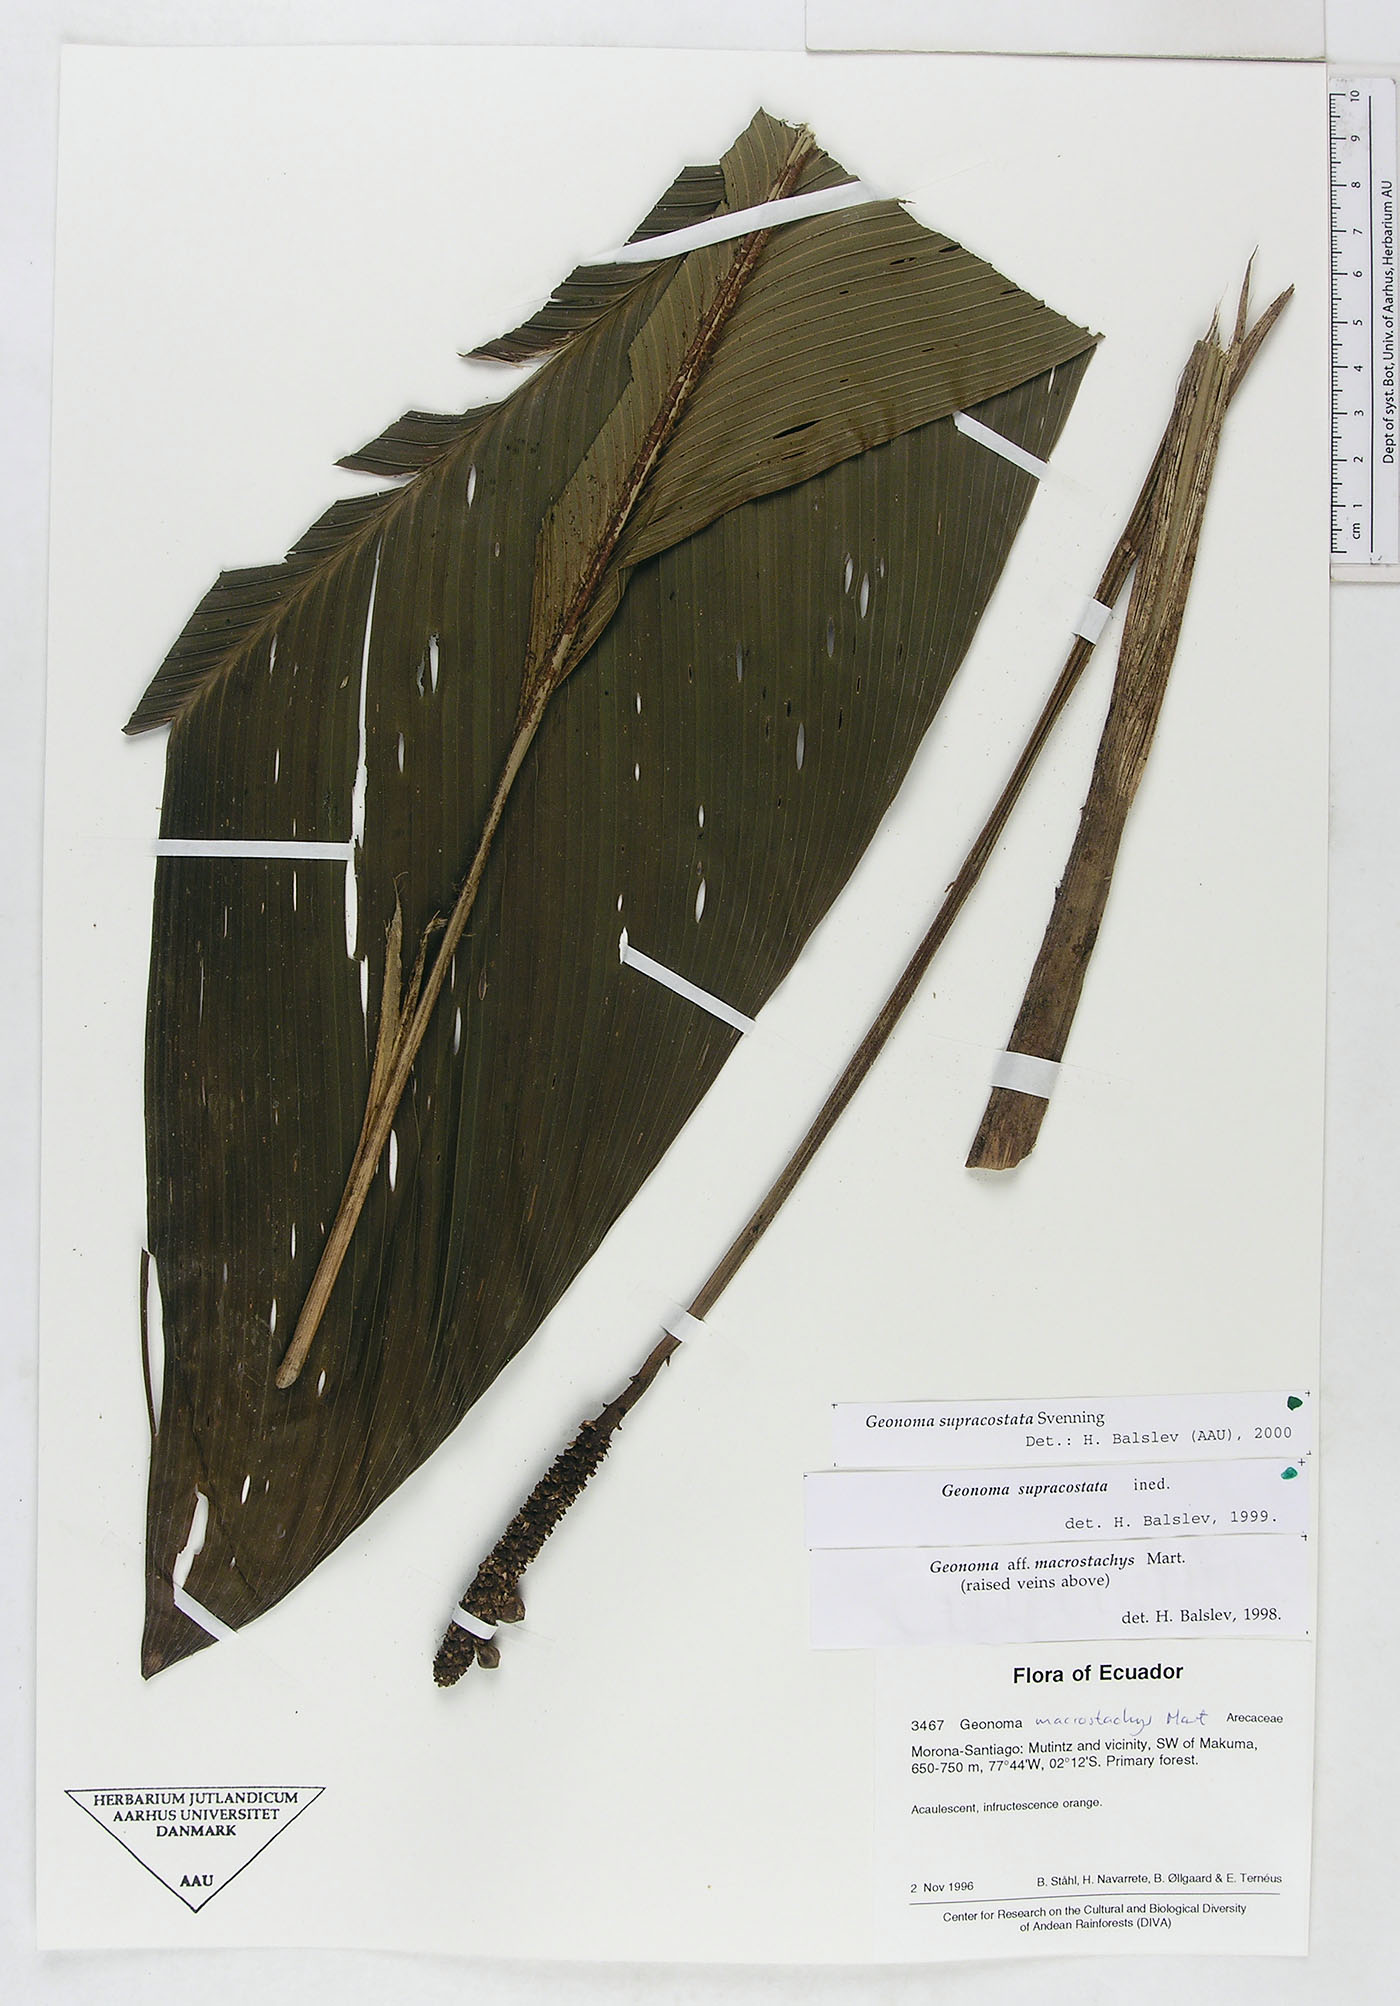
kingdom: Plantae
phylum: Tracheophyta
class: Liliopsida
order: Arecales
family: Arecaceae
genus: Geonoma
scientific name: Geonoma macrostachys
